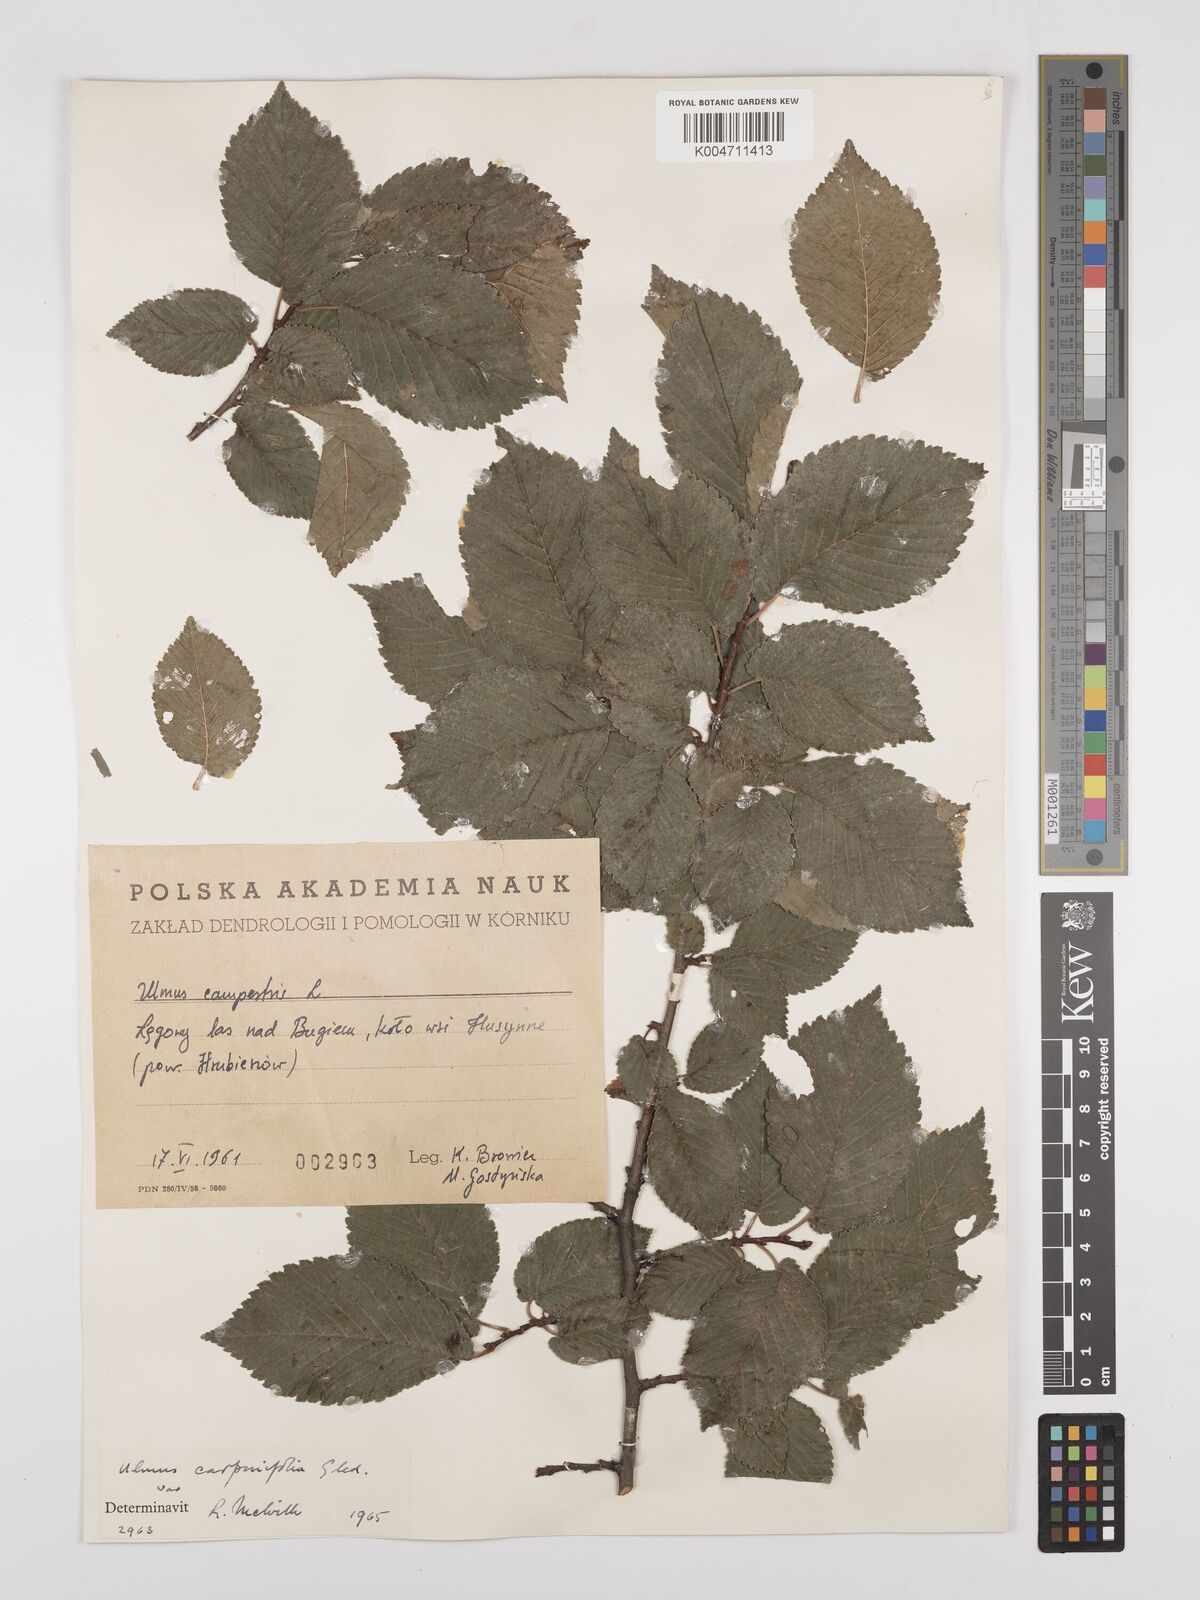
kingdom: Plantae
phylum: Tracheophyta
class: Magnoliopsida
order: Rosales
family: Ulmaceae
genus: Ulmus
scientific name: Ulmus minor
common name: Small-leaved elm
